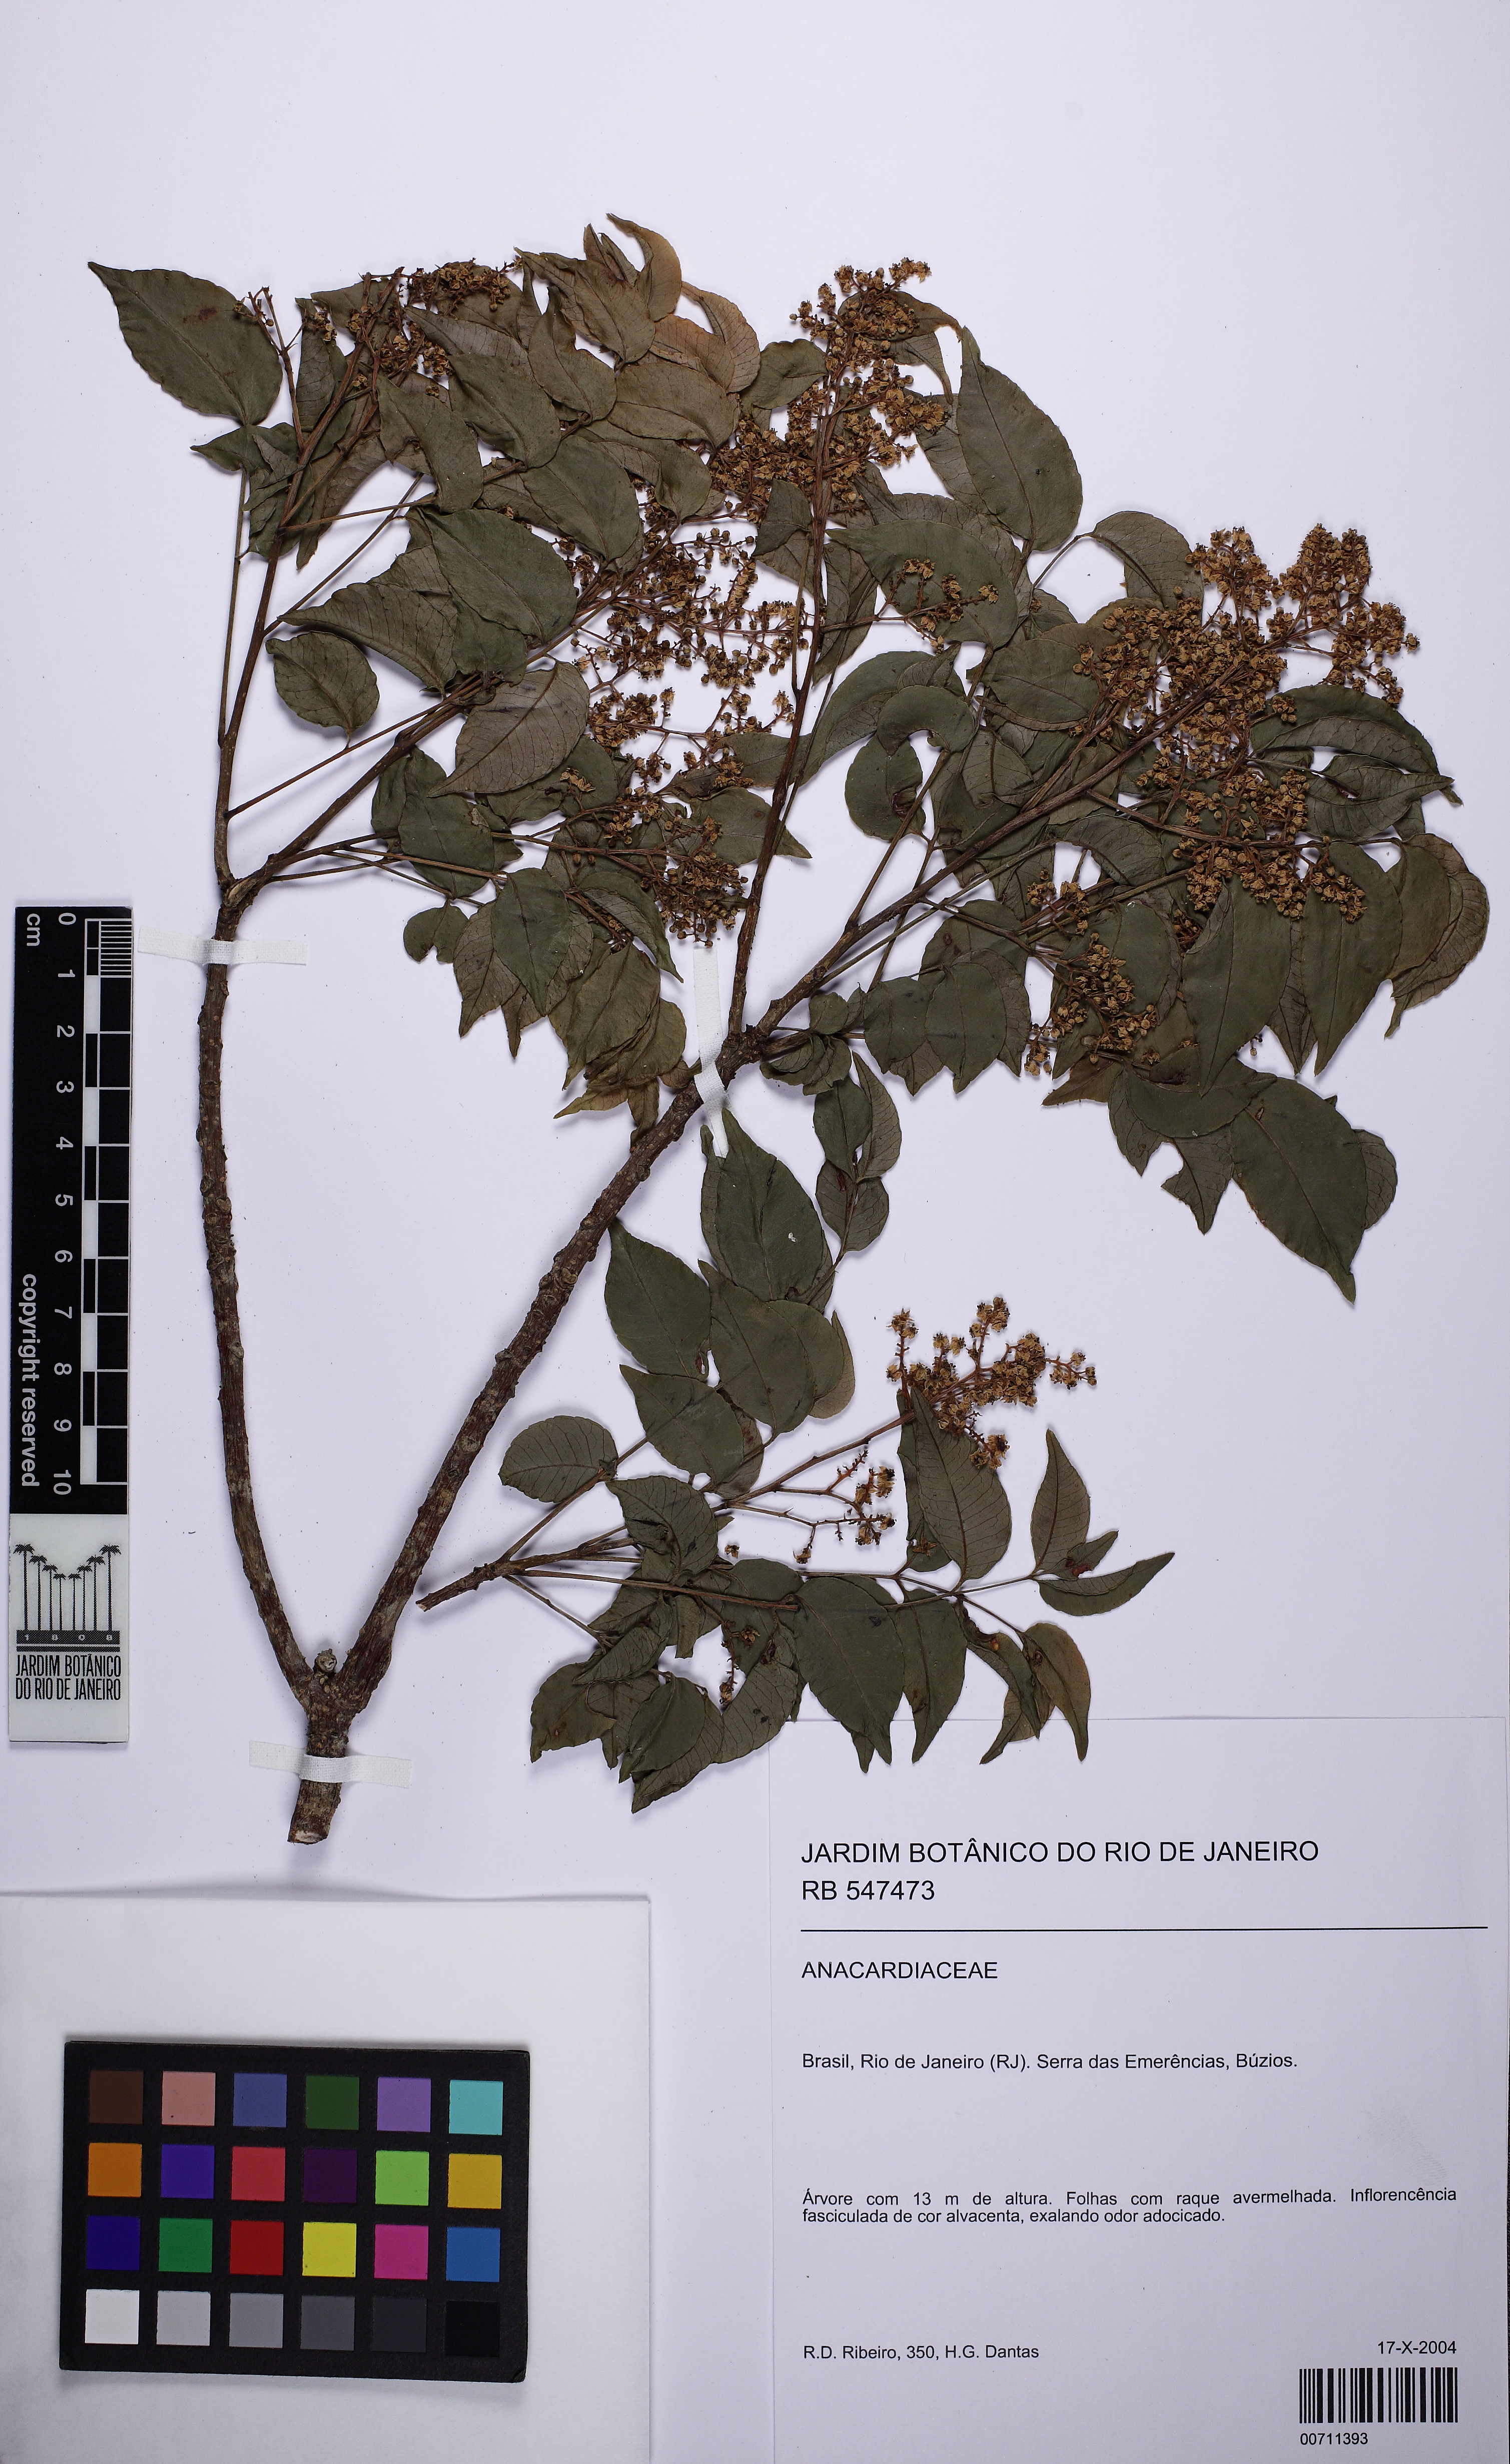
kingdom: Plantae
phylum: Tracheophyta
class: Magnoliopsida
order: Sapindales
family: Anacardiaceae
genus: Spondias
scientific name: Spondias
